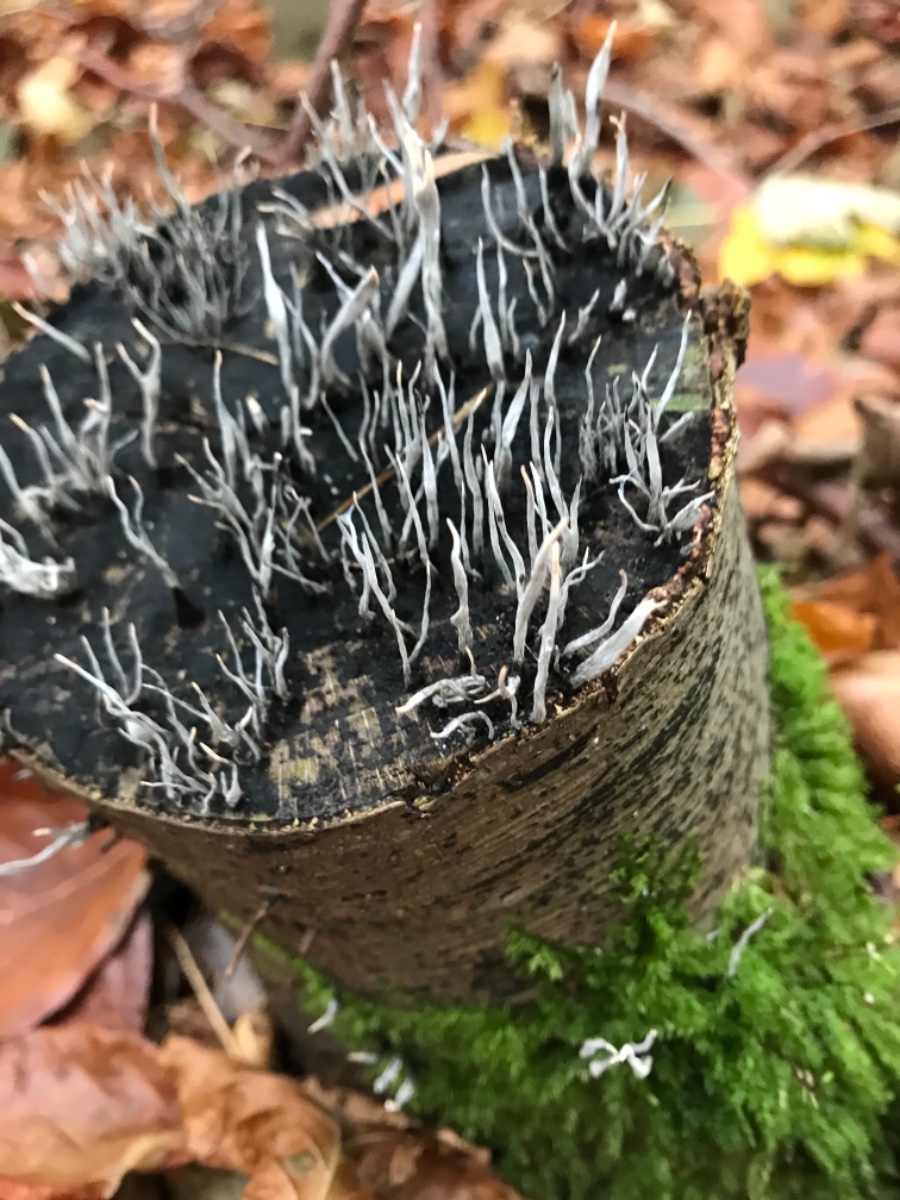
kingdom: Fungi
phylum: Ascomycota
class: Sordariomycetes
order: Xylariales
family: Xylariaceae
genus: Xylaria
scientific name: Xylaria hypoxylon
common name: grenet stødsvamp
